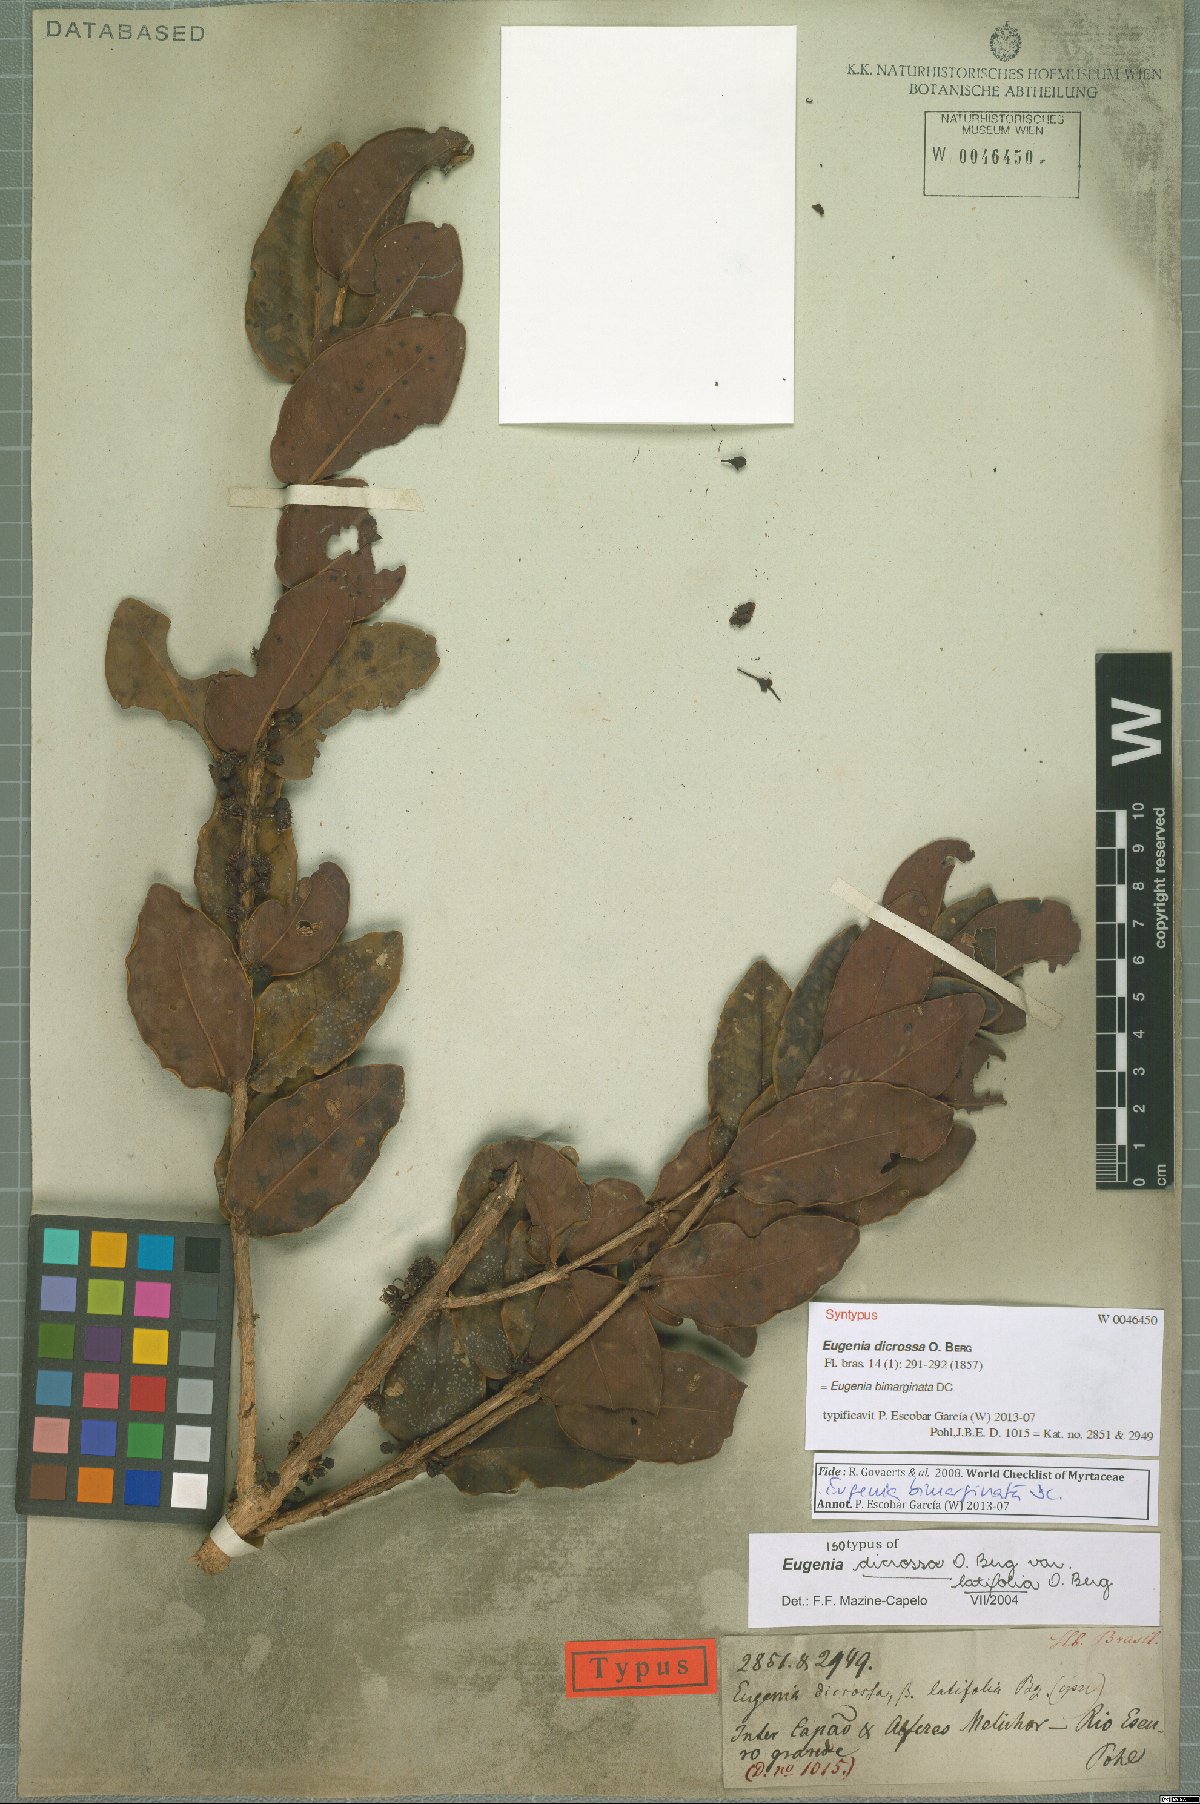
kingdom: Plantae
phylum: Tracheophyta
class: Magnoliopsida
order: Myrtales
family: Myrtaceae
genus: Eugenia
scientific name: Eugenia bimarginata
